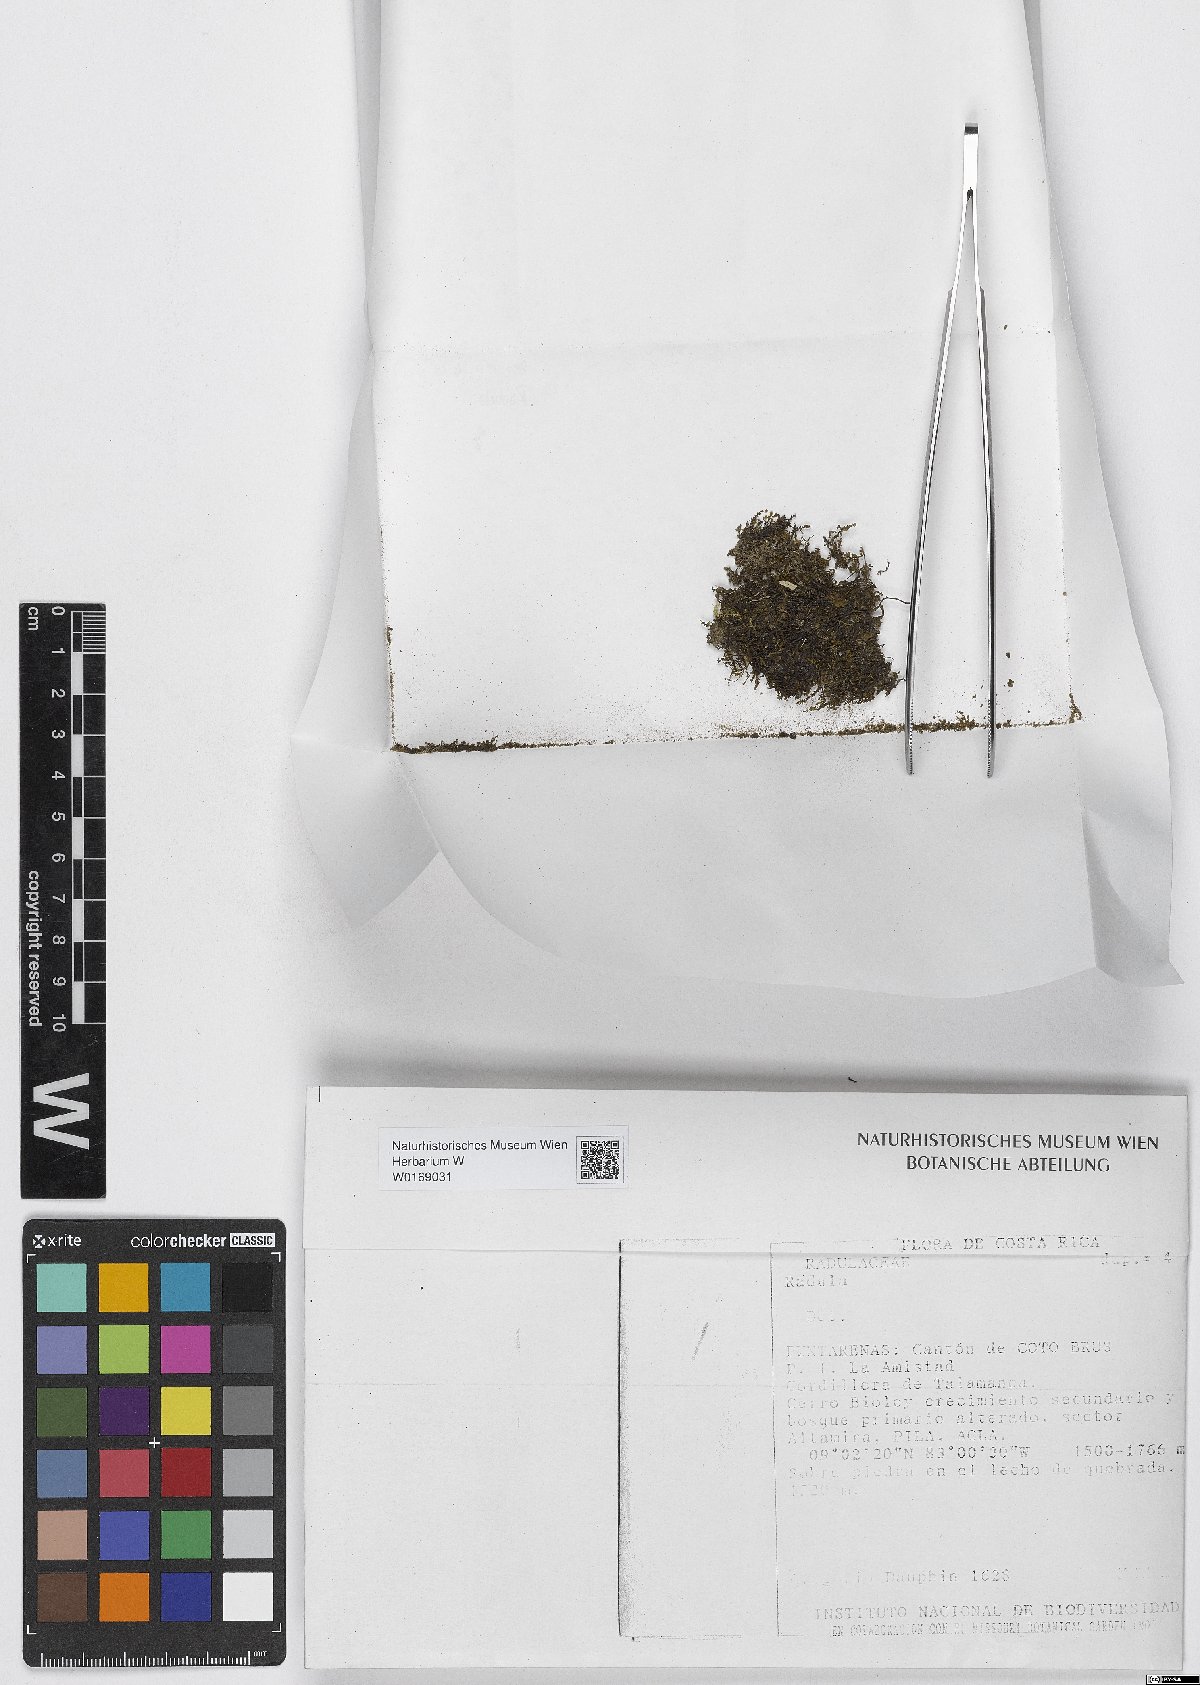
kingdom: Plantae
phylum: Marchantiophyta
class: Jungermanniopsida
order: Porellales
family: Radulaceae
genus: Radula
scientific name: Radula
